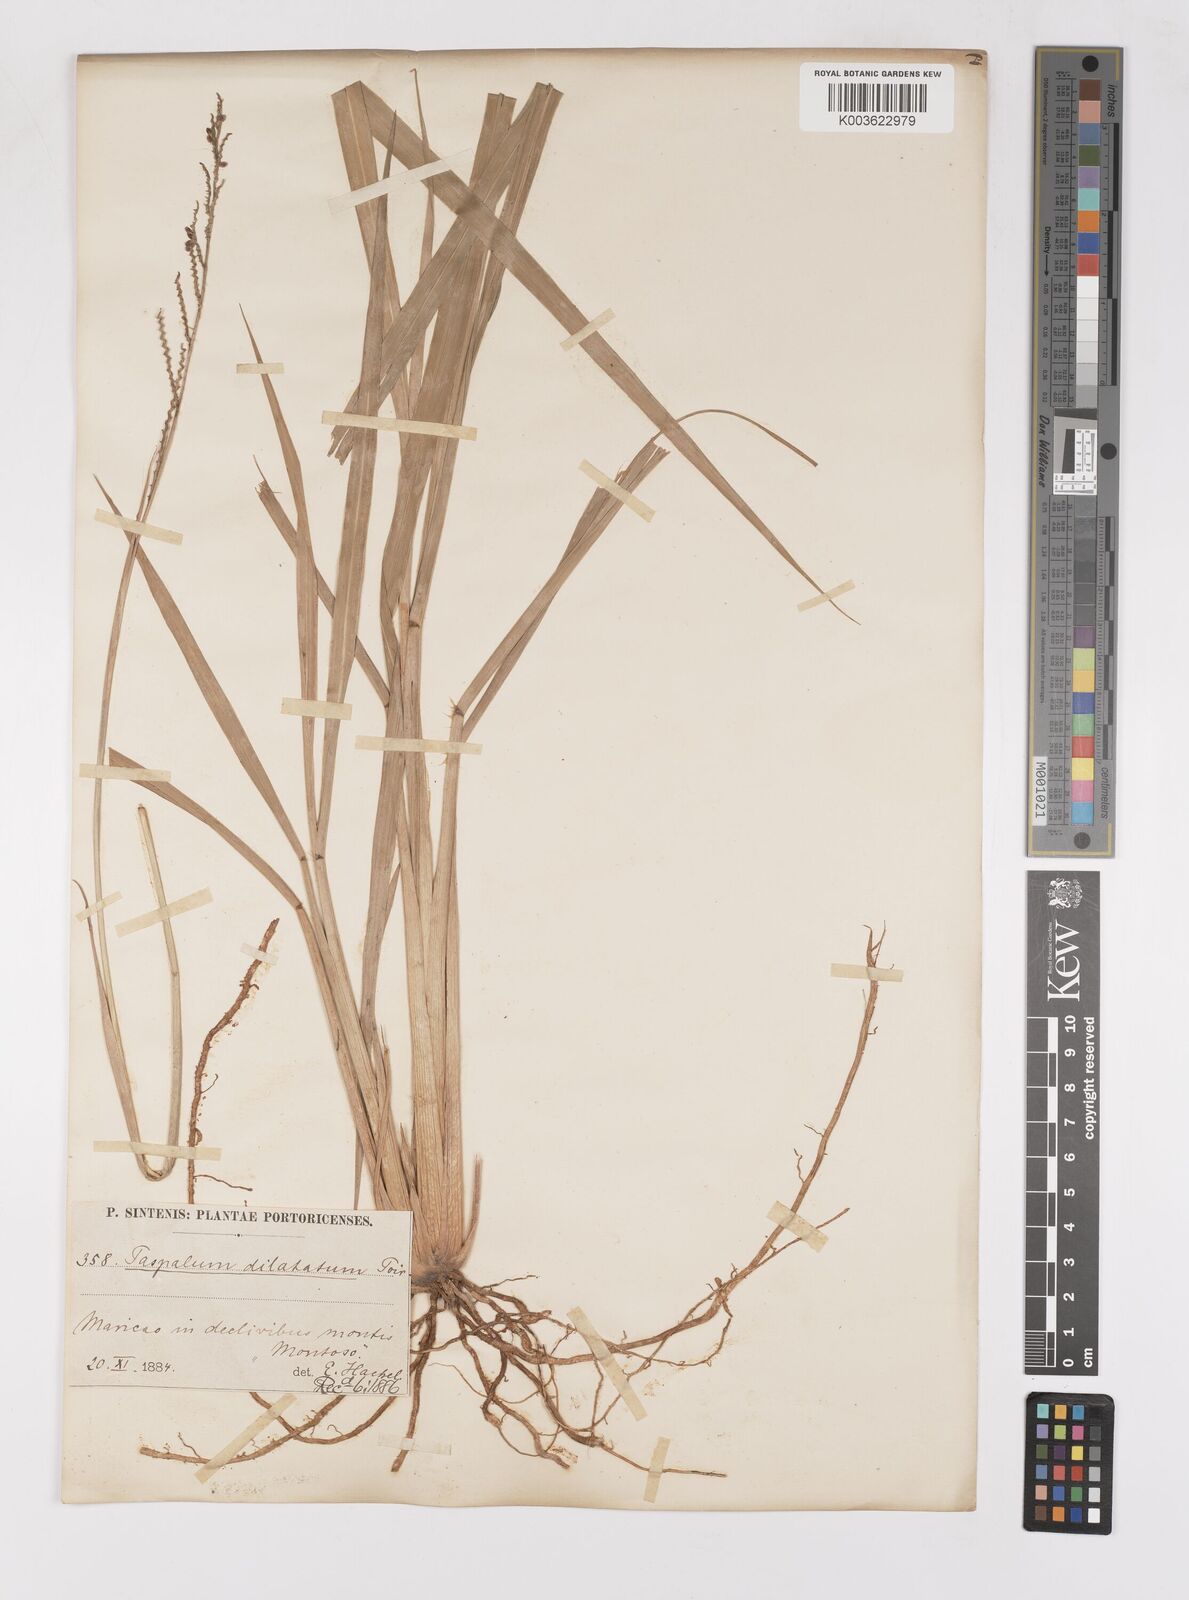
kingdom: Plantae
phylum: Tracheophyta
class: Liliopsida
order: Poales
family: Poaceae
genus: Paspalum
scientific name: Paspalum dilatatum
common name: Dallisgrass
